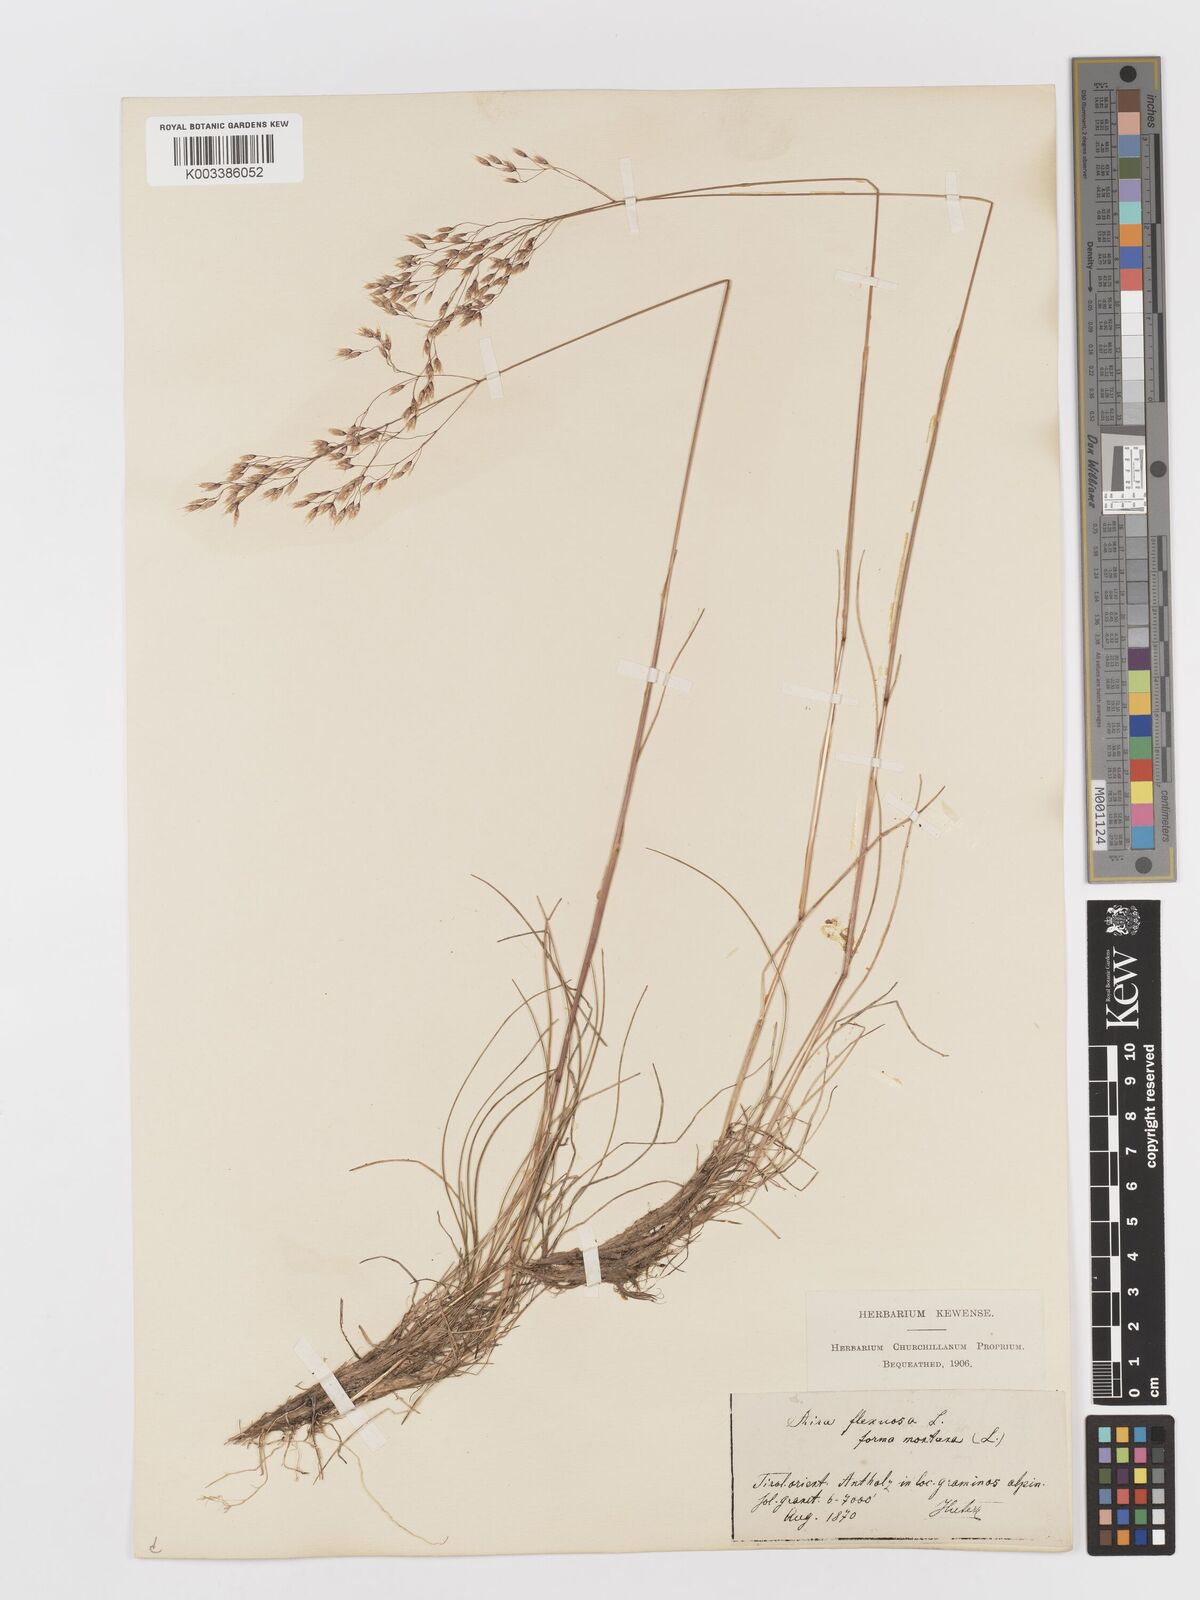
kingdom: Plantae
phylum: Tracheophyta
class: Liliopsida
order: Poales
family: Poaceae
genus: Avenella
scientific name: Avenella flexuosa
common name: Wavy hairgrass
